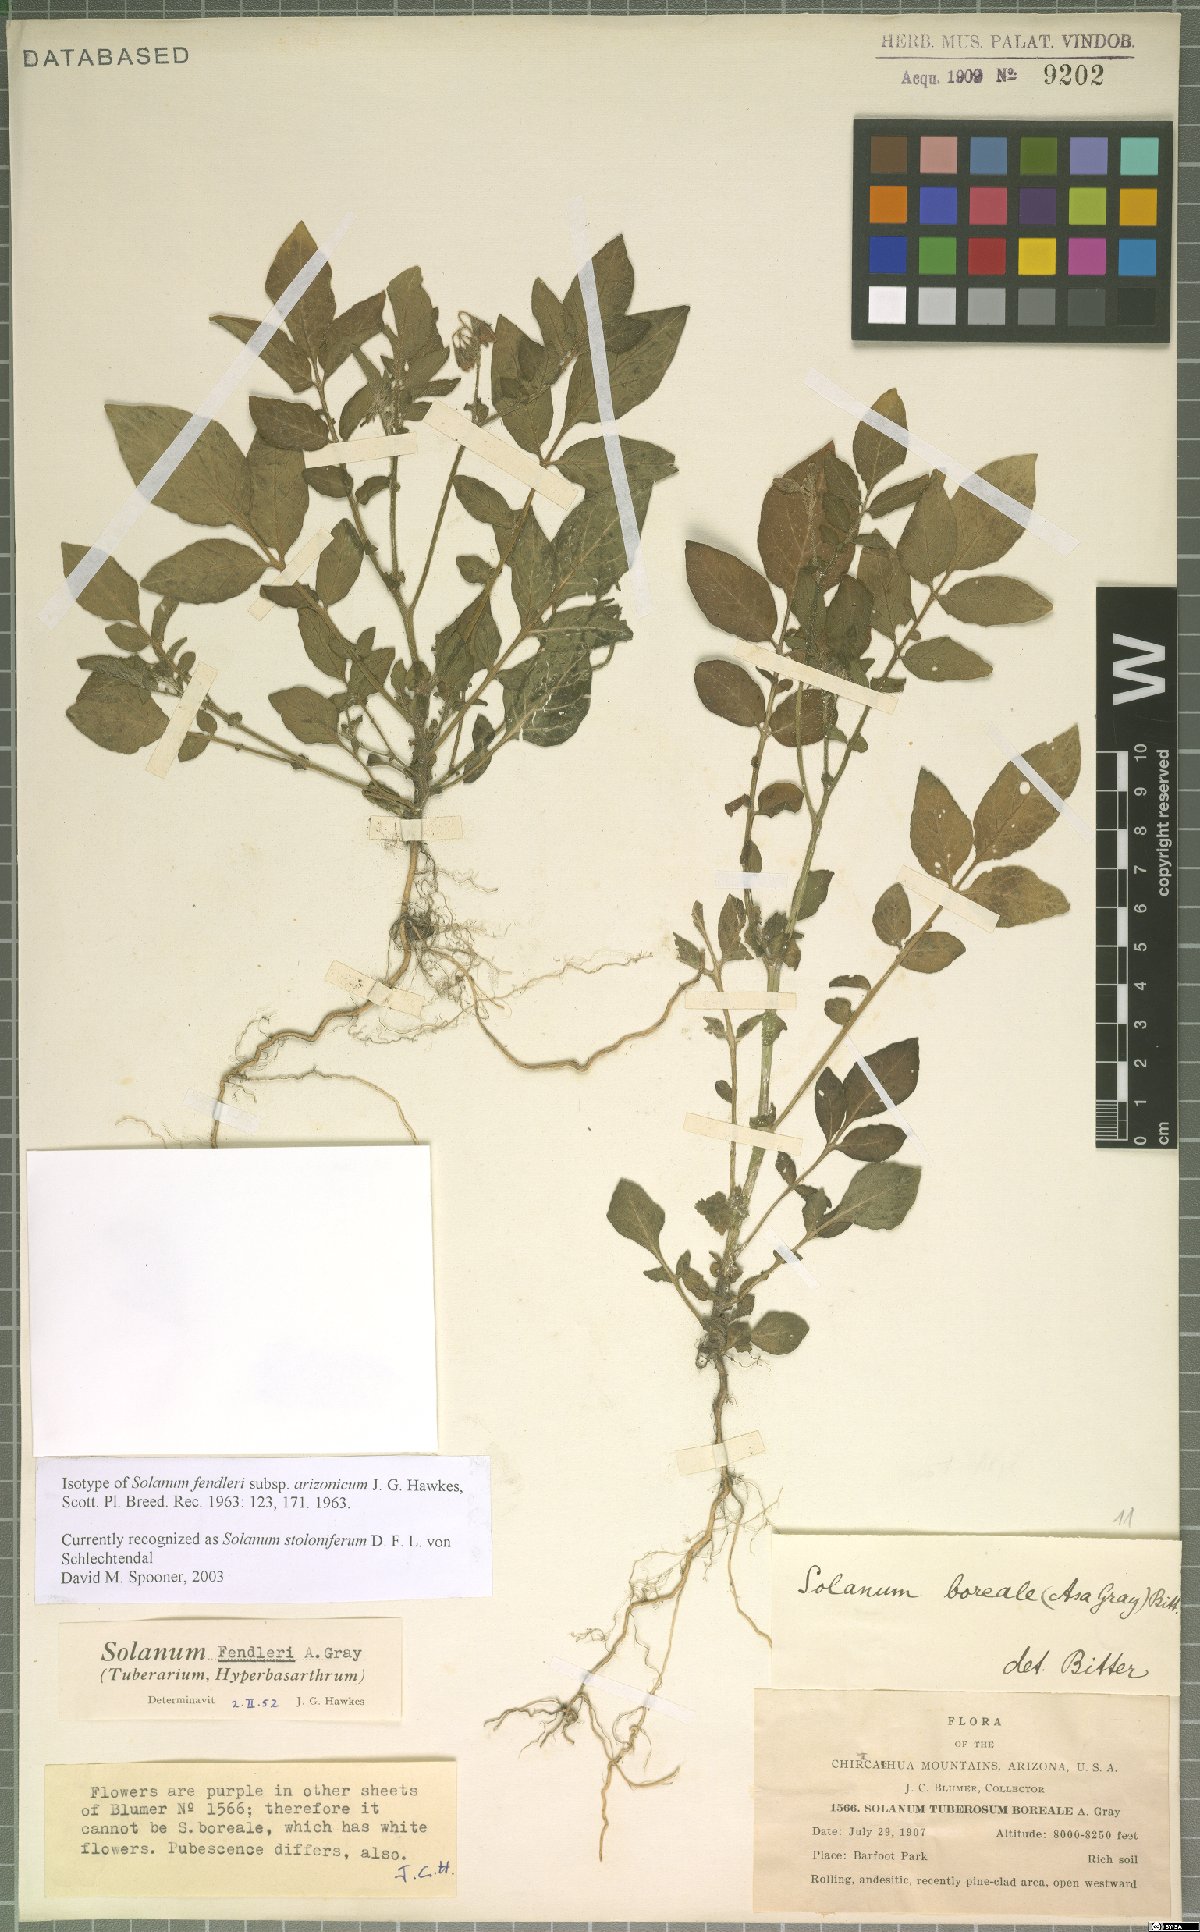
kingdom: Plantae
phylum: Tracheophyta
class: Magnoliopsida
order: Solanales
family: Solanaceae
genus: Solanum
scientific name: Solanum stoloniferum
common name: Fendler's nighshade
